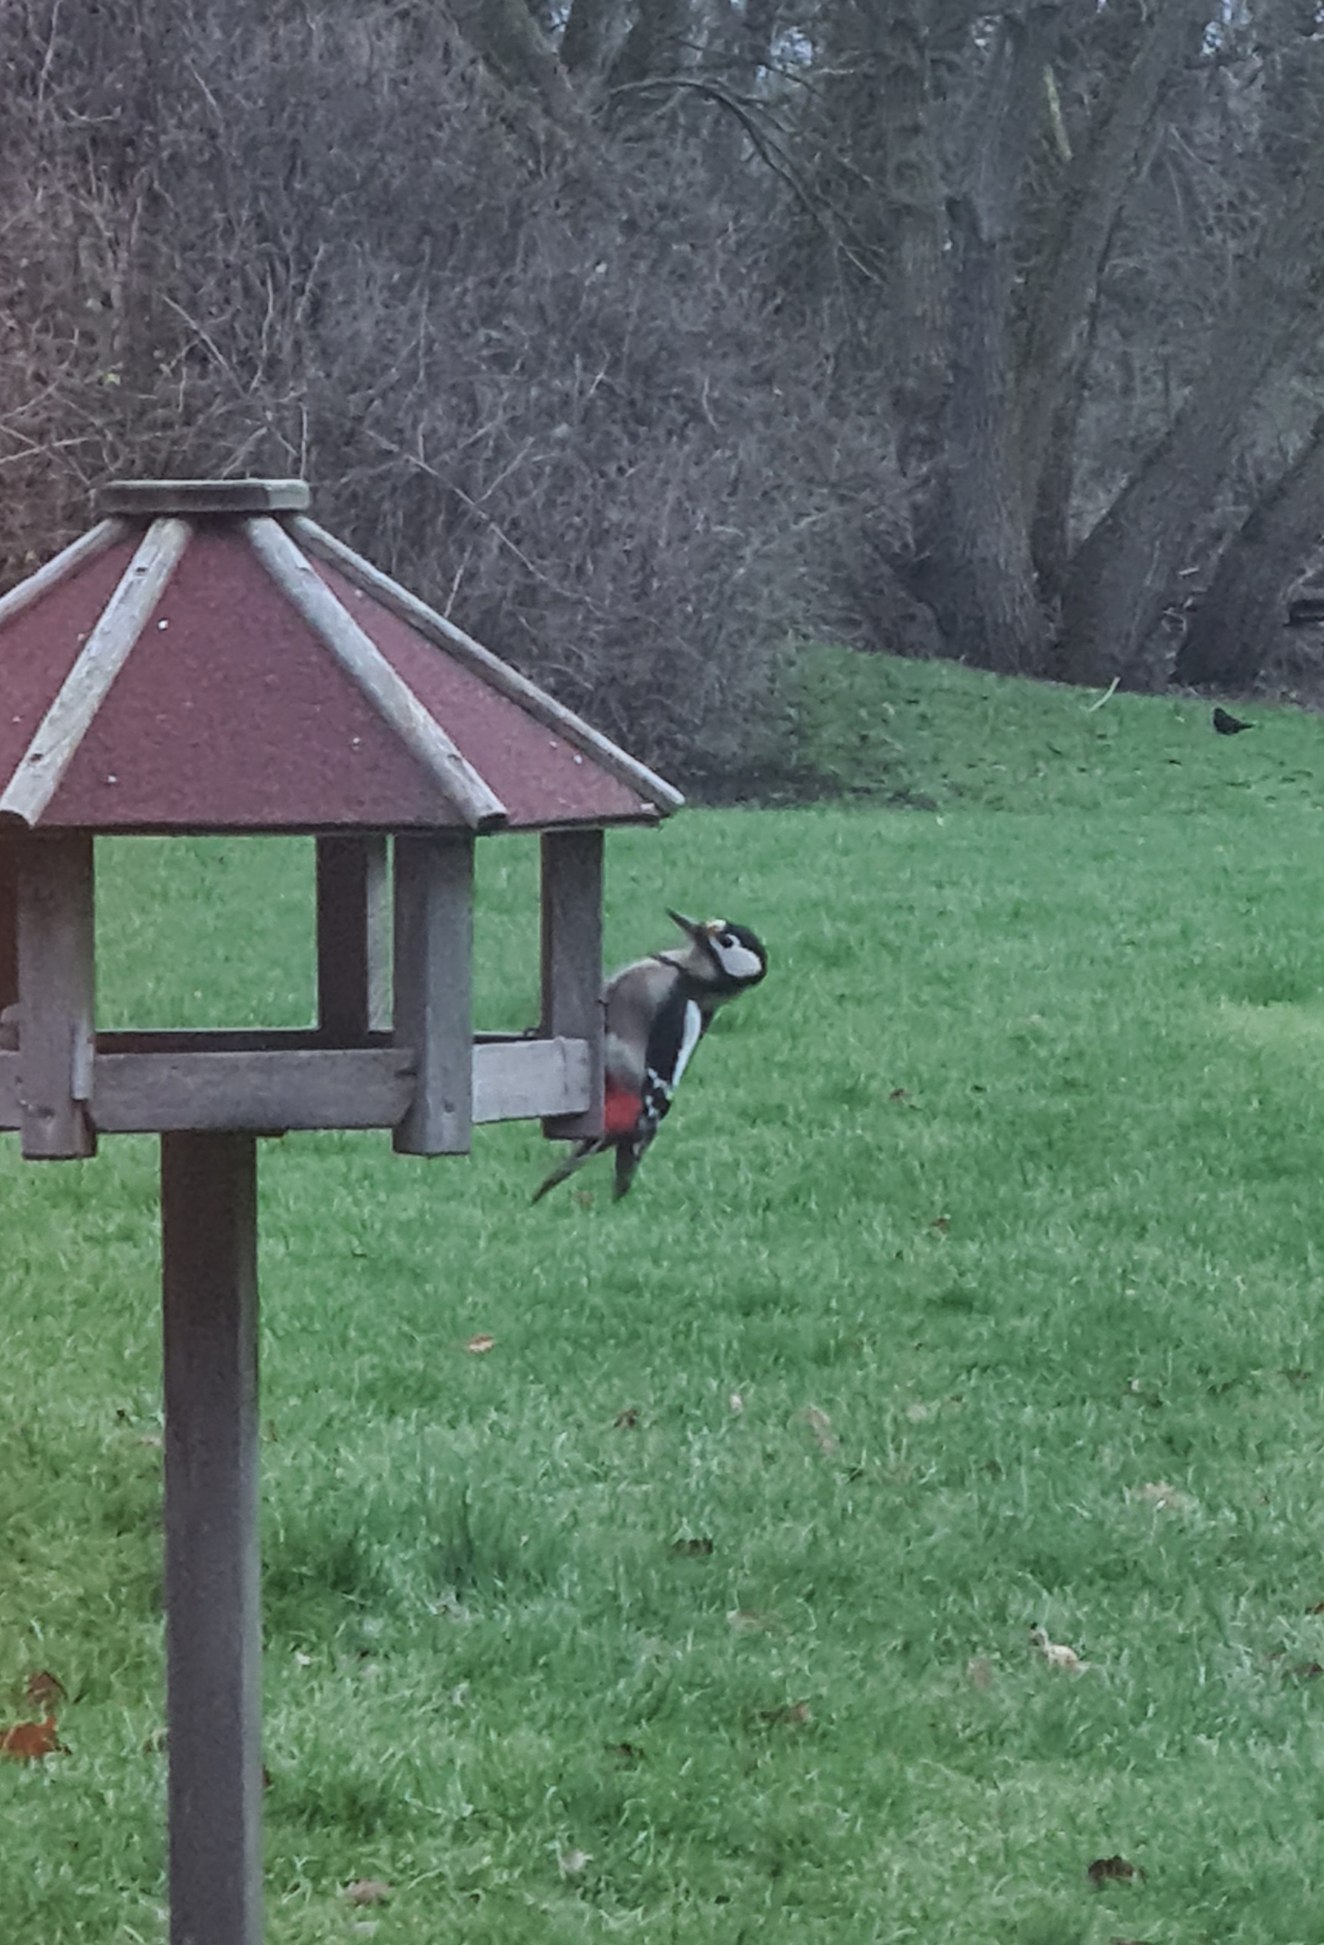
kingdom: Animalia
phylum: Chordata
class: Aves
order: Piciformes
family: Picidae
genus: Dendrocopos
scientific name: Dendrocopos major
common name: Stor flagspætte
